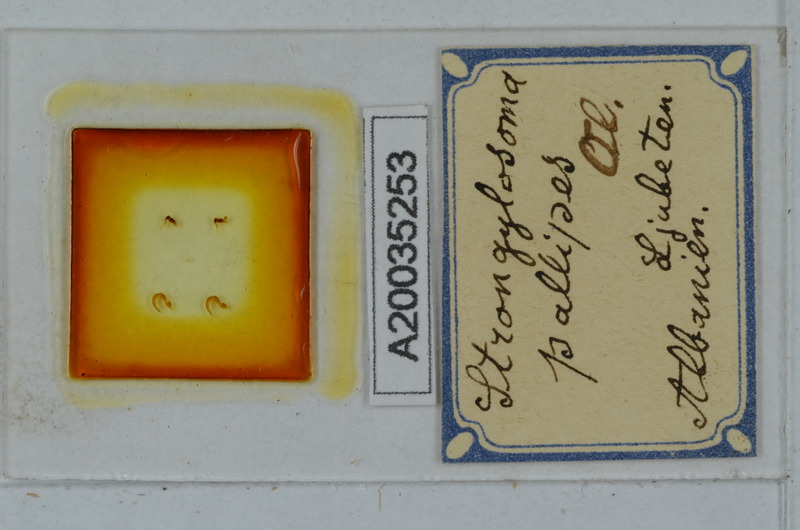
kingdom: Animalia
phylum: Arthropoda
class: Diplopoda
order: Polydesmida
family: Paradoxosomatidae
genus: Strongylosoma
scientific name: Strongylosoma stigmatosus
